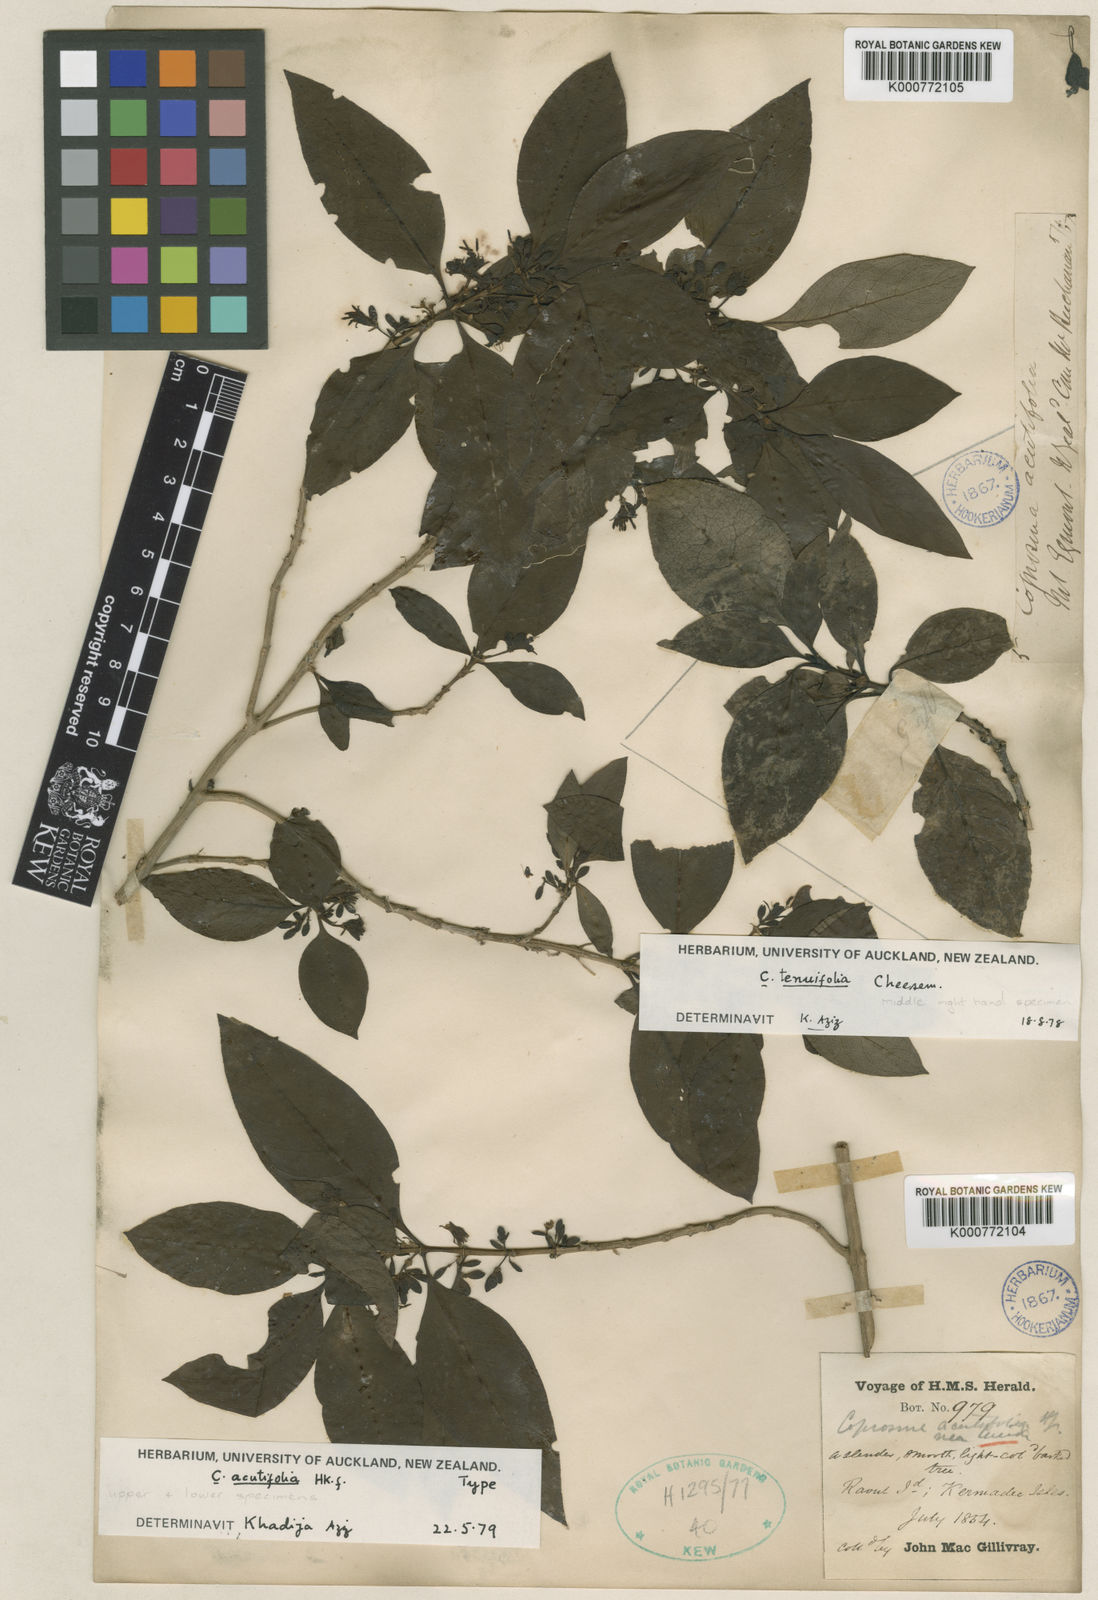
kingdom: Plantae
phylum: Tracheophyta
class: Magnoliopsida
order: Gentianales
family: Rubiaceae
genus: Coprosma
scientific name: Coprosma acutifolia
